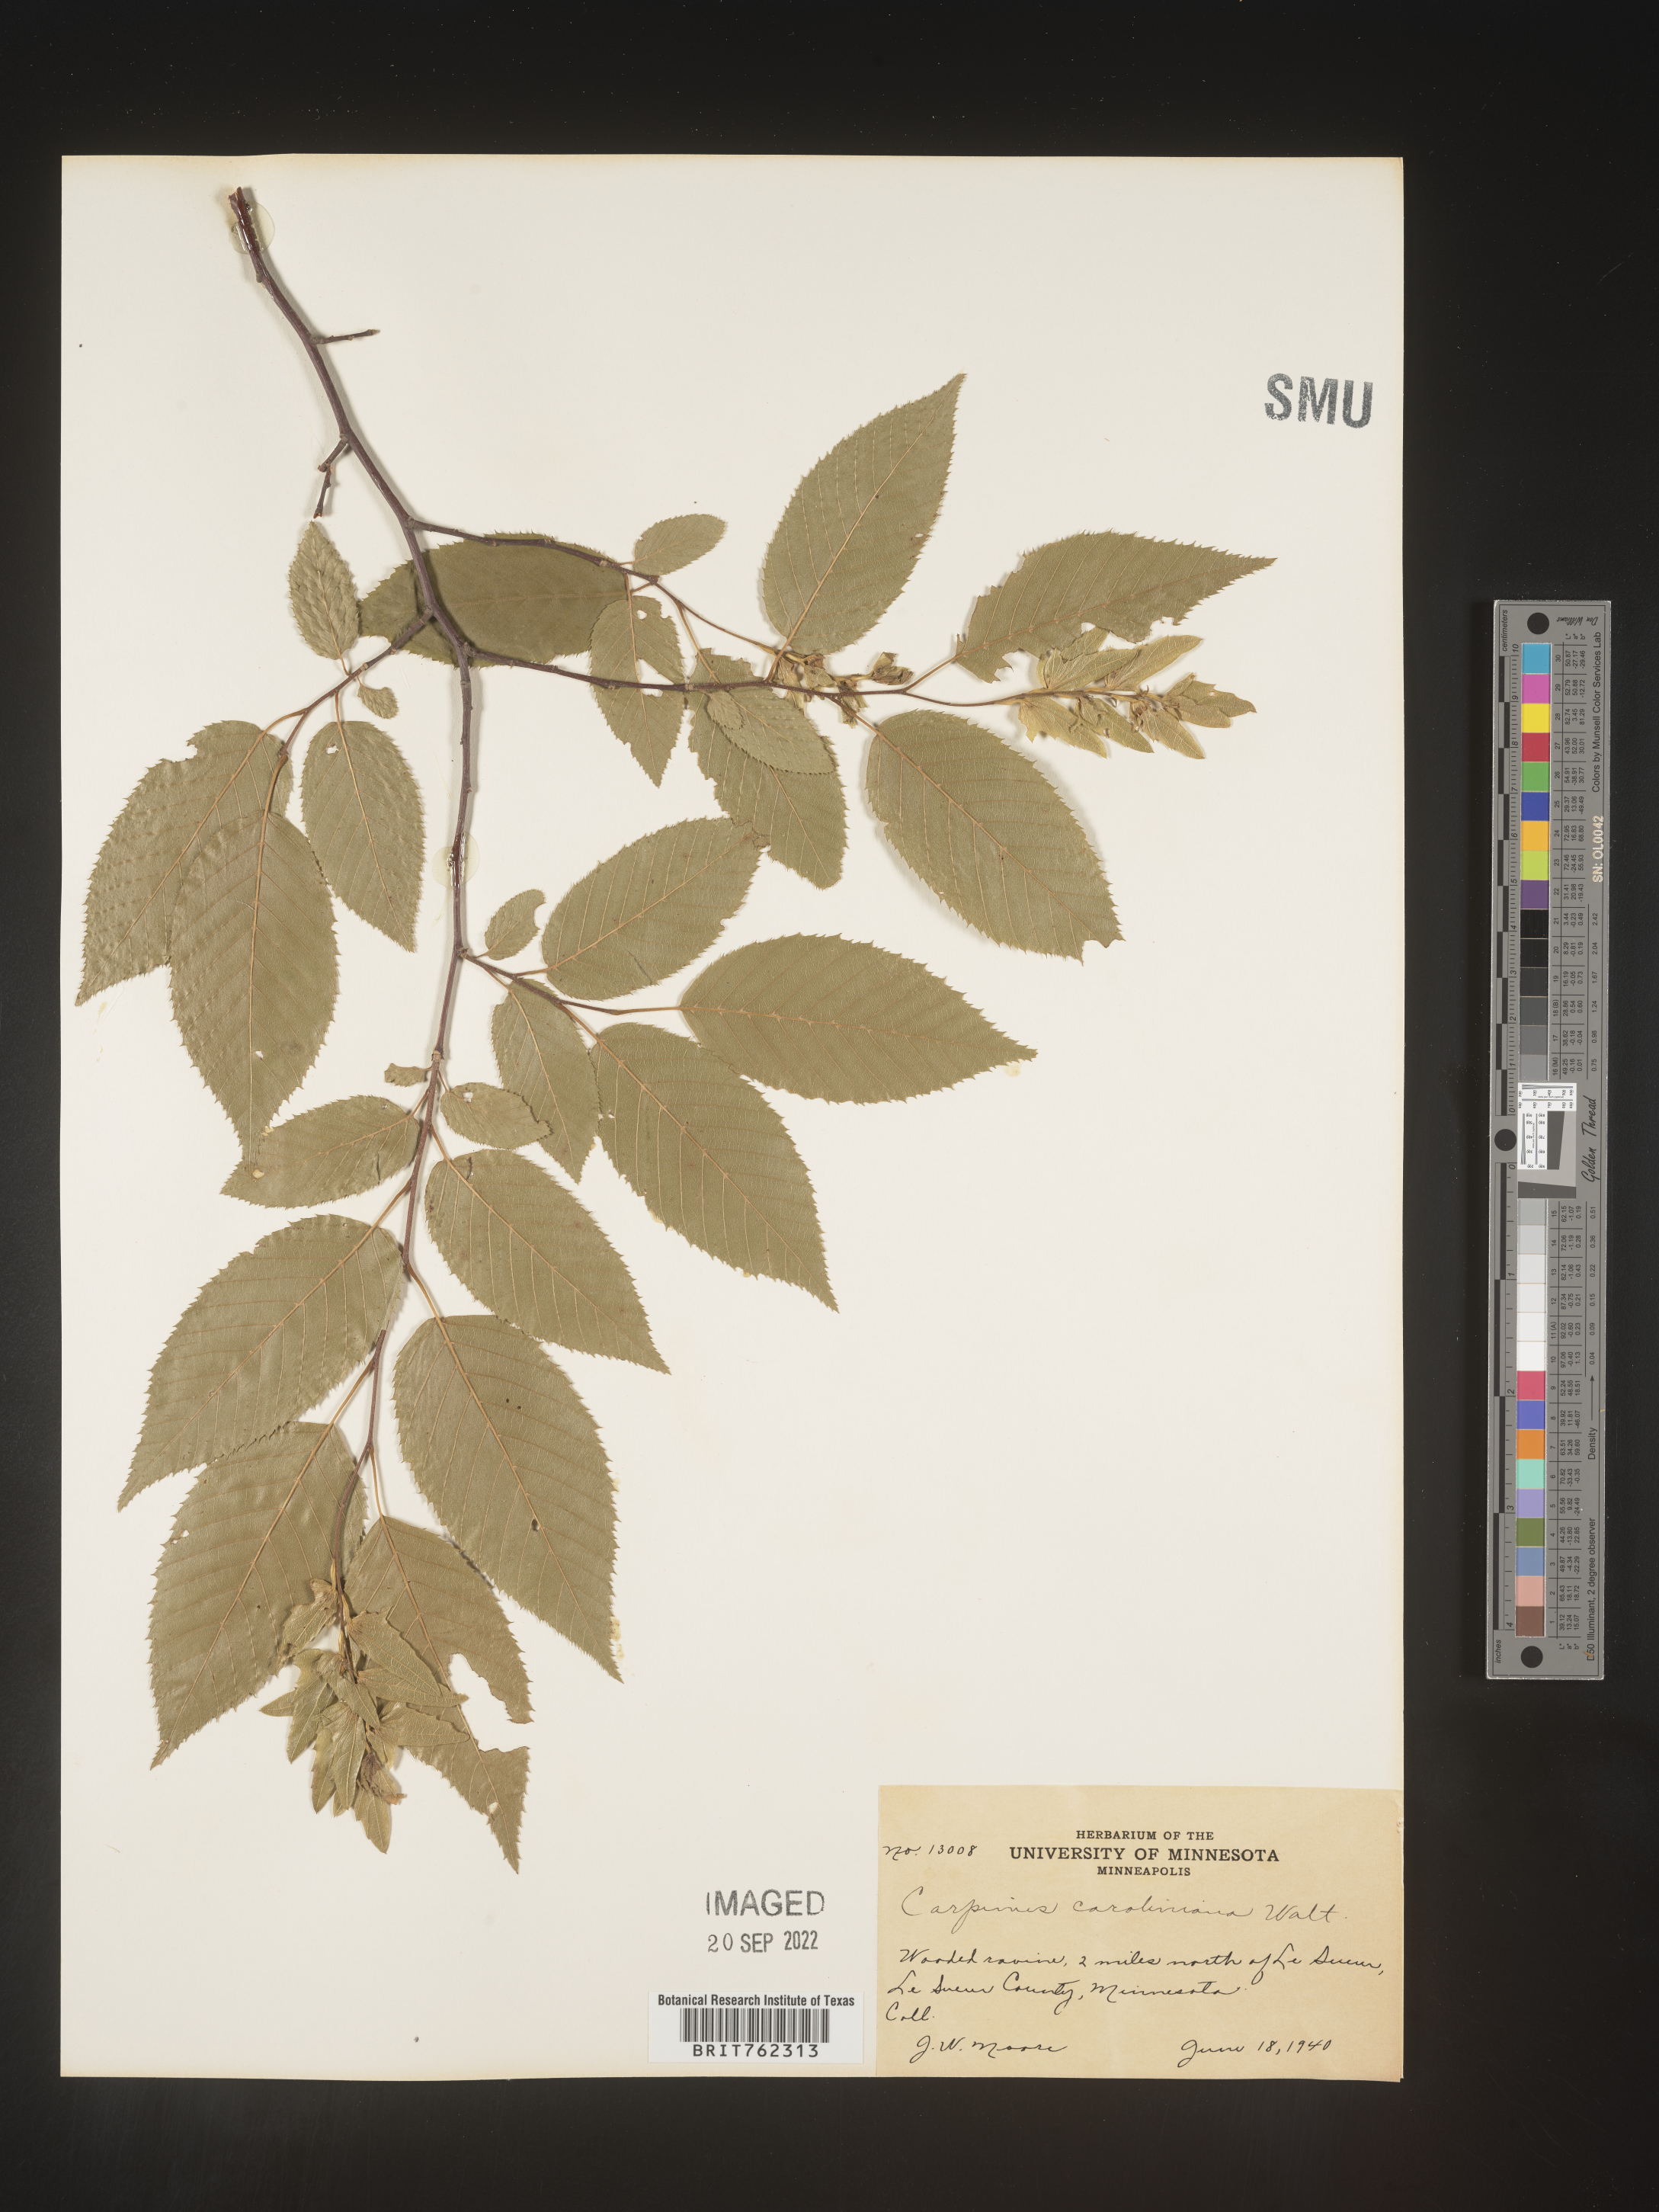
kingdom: Plantae
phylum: Tracheophyta
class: Magnoliopsida
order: Fagales
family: Betulaceae
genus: Carpinus
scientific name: Carpinus caroliniana
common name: American hornbeam
